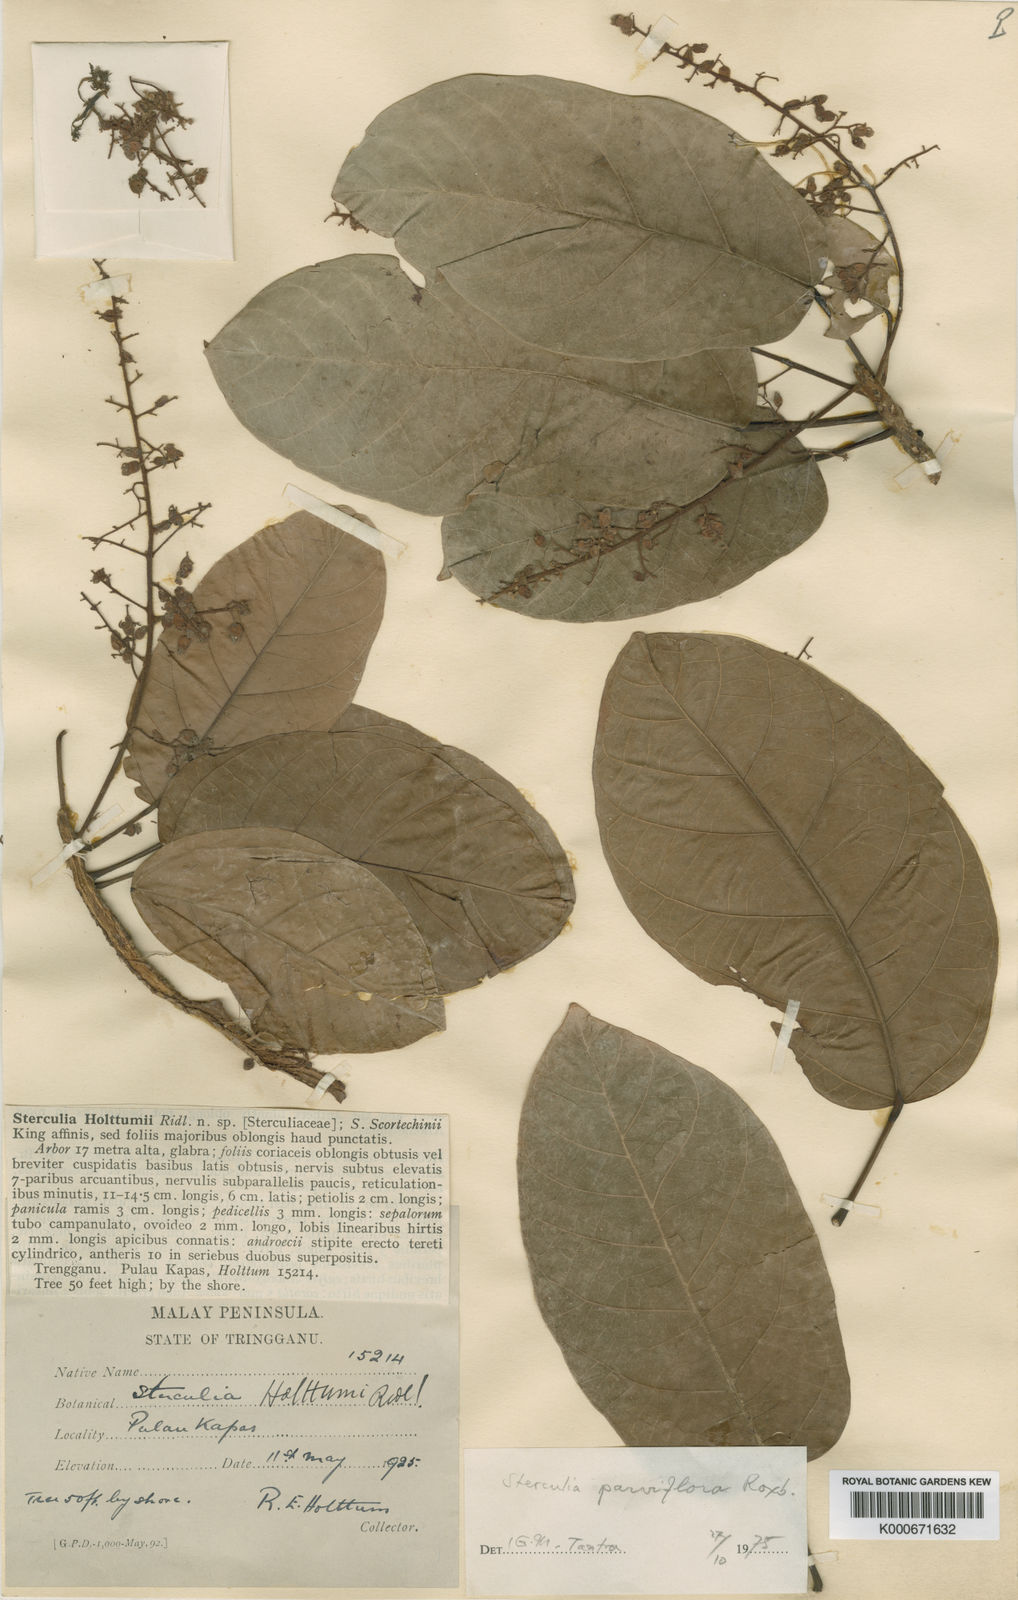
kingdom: Plantae
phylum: Tracheophyta
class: Magnoliopsida
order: Malvales
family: Malvaceae
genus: Sterculia
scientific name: Sterculia
